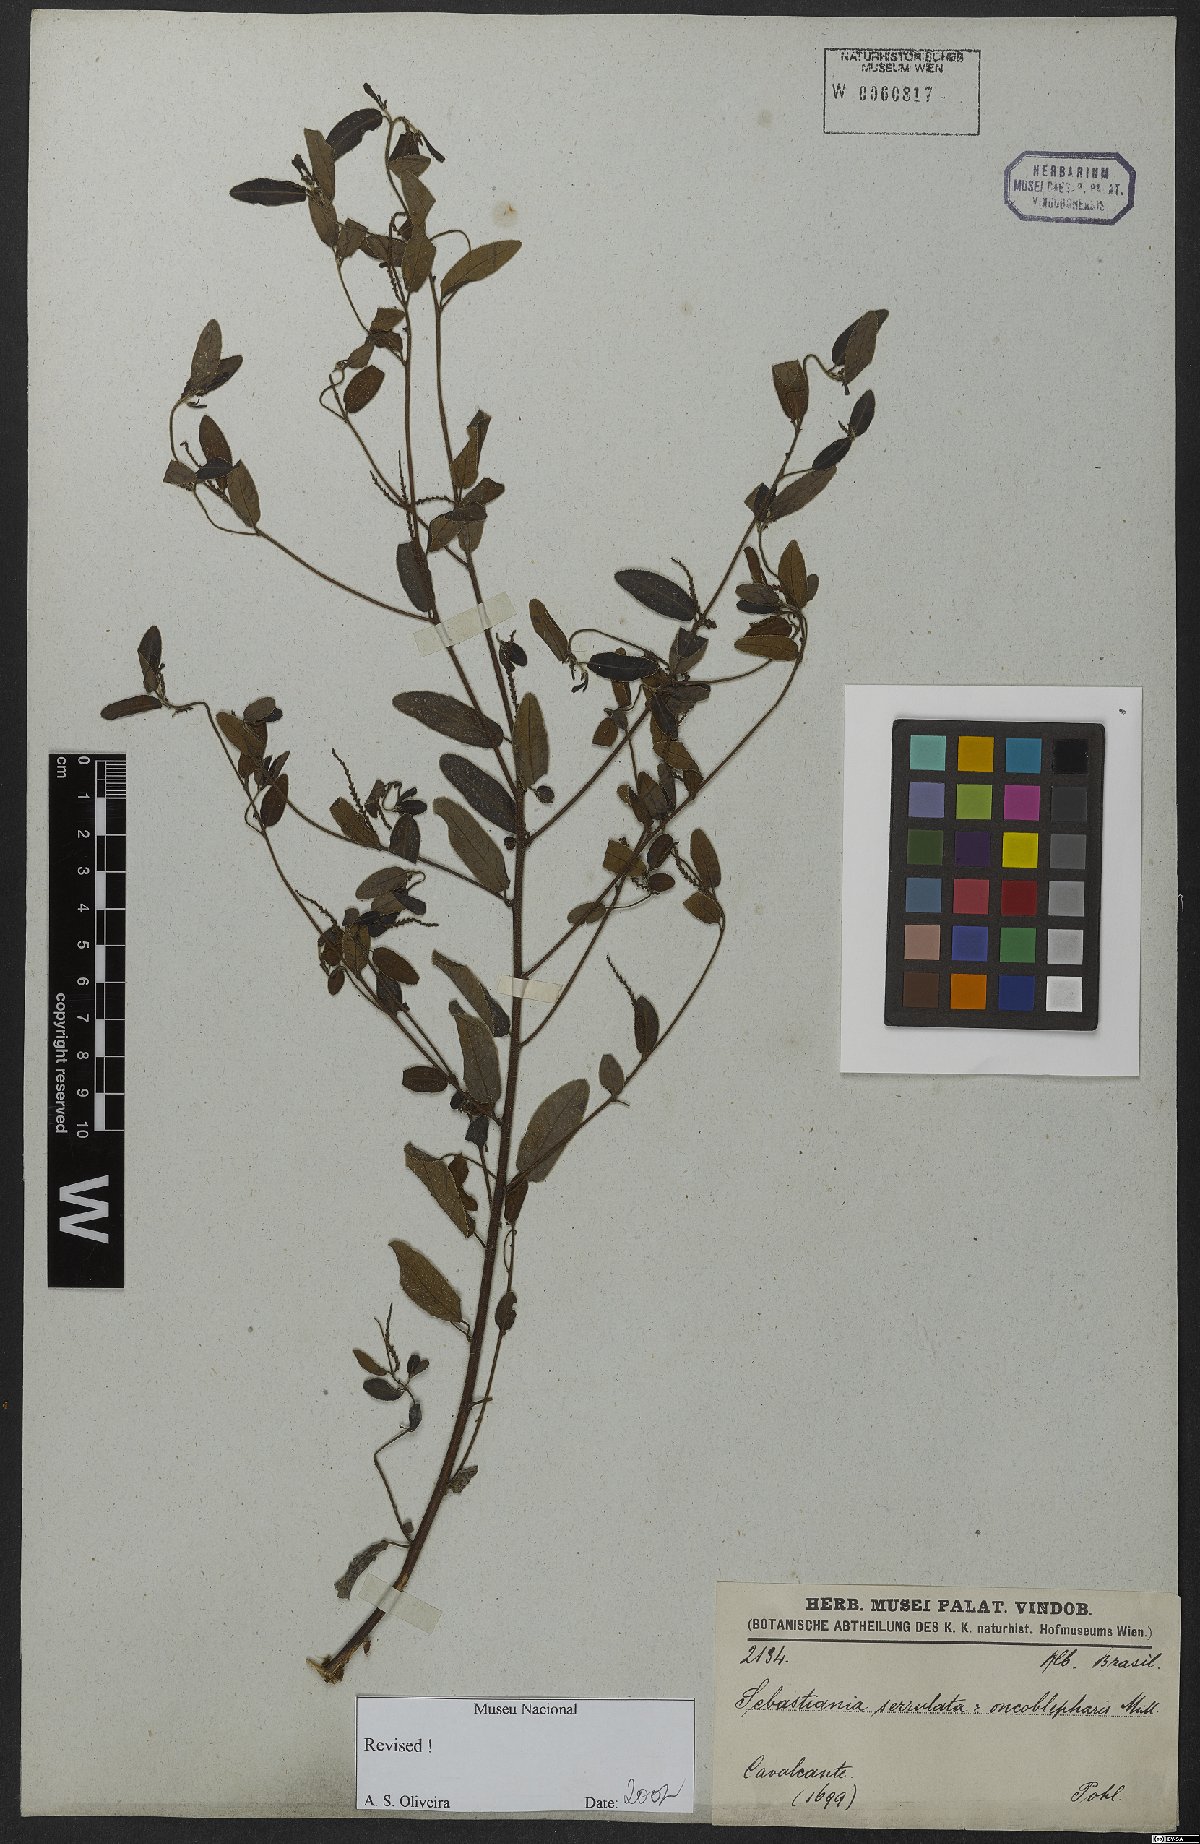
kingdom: Plantae
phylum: Tracheophyta
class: Magnoliopsida
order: Malpighiales
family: Euphorbiaceae
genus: Microstachys
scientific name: Microstachys serrulata
